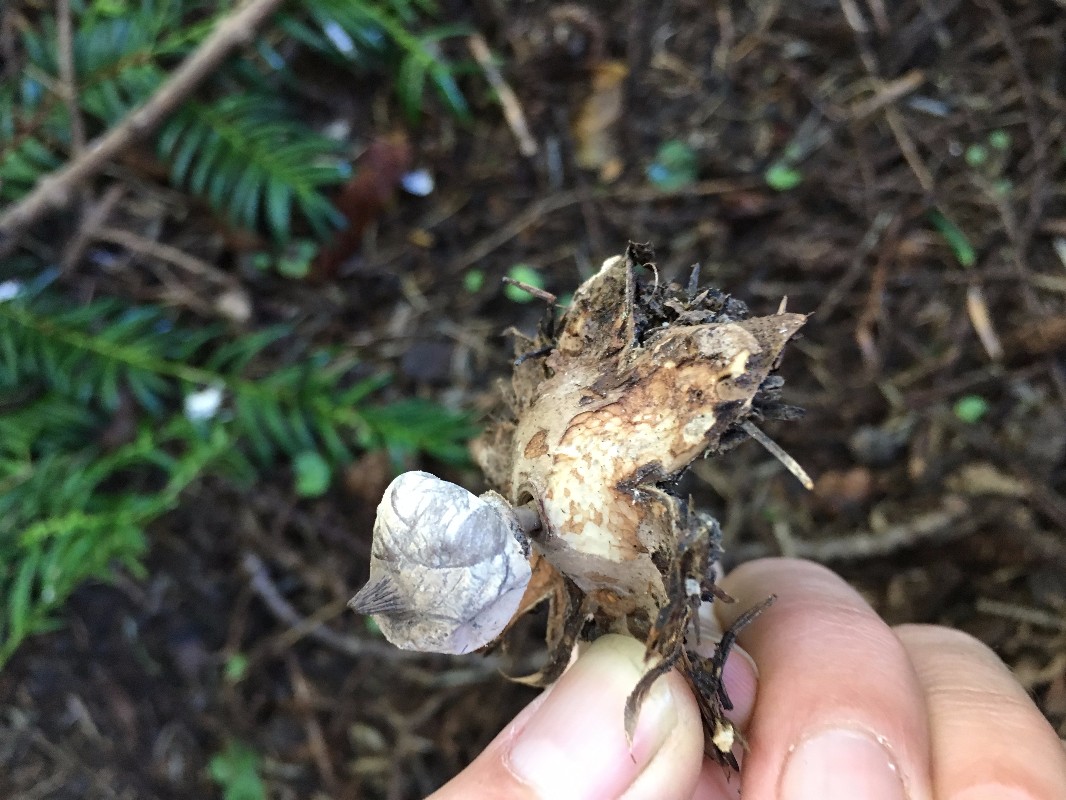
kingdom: Fungi
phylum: Basidiomycota
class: Agaricomycetes
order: Geastrales
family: Geastraceae
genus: Geastrum
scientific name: Geastrum striatum
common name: krave-stjernebold
